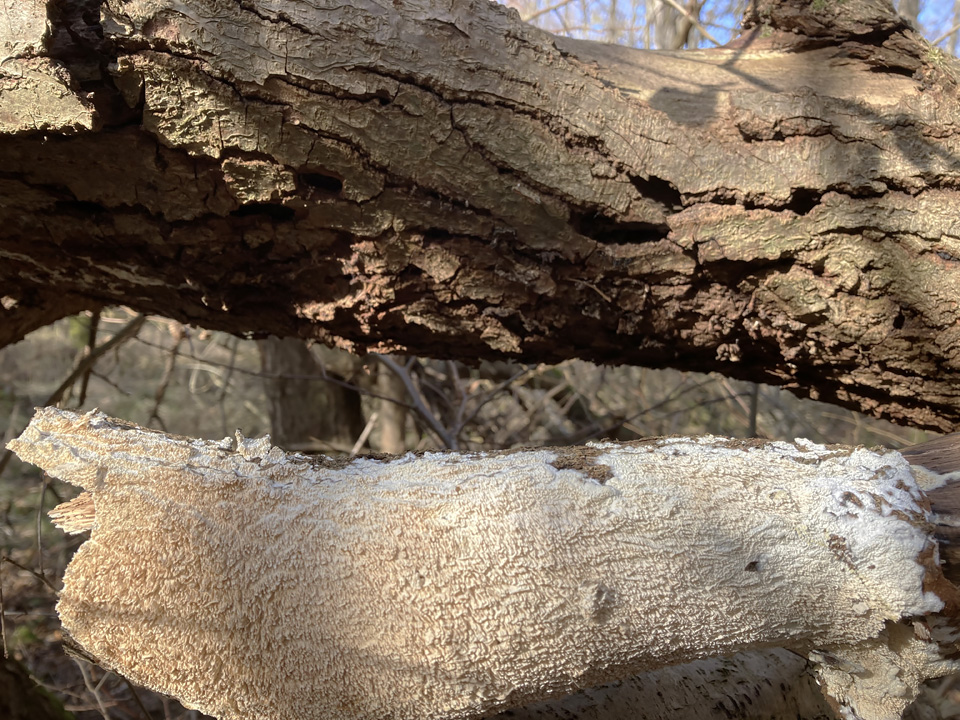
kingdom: Fungi
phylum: Basidiomycota
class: Agaricomycetes
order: Hymenochaetales
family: Schizoporaceae
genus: Xylodon
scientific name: Xylodon
